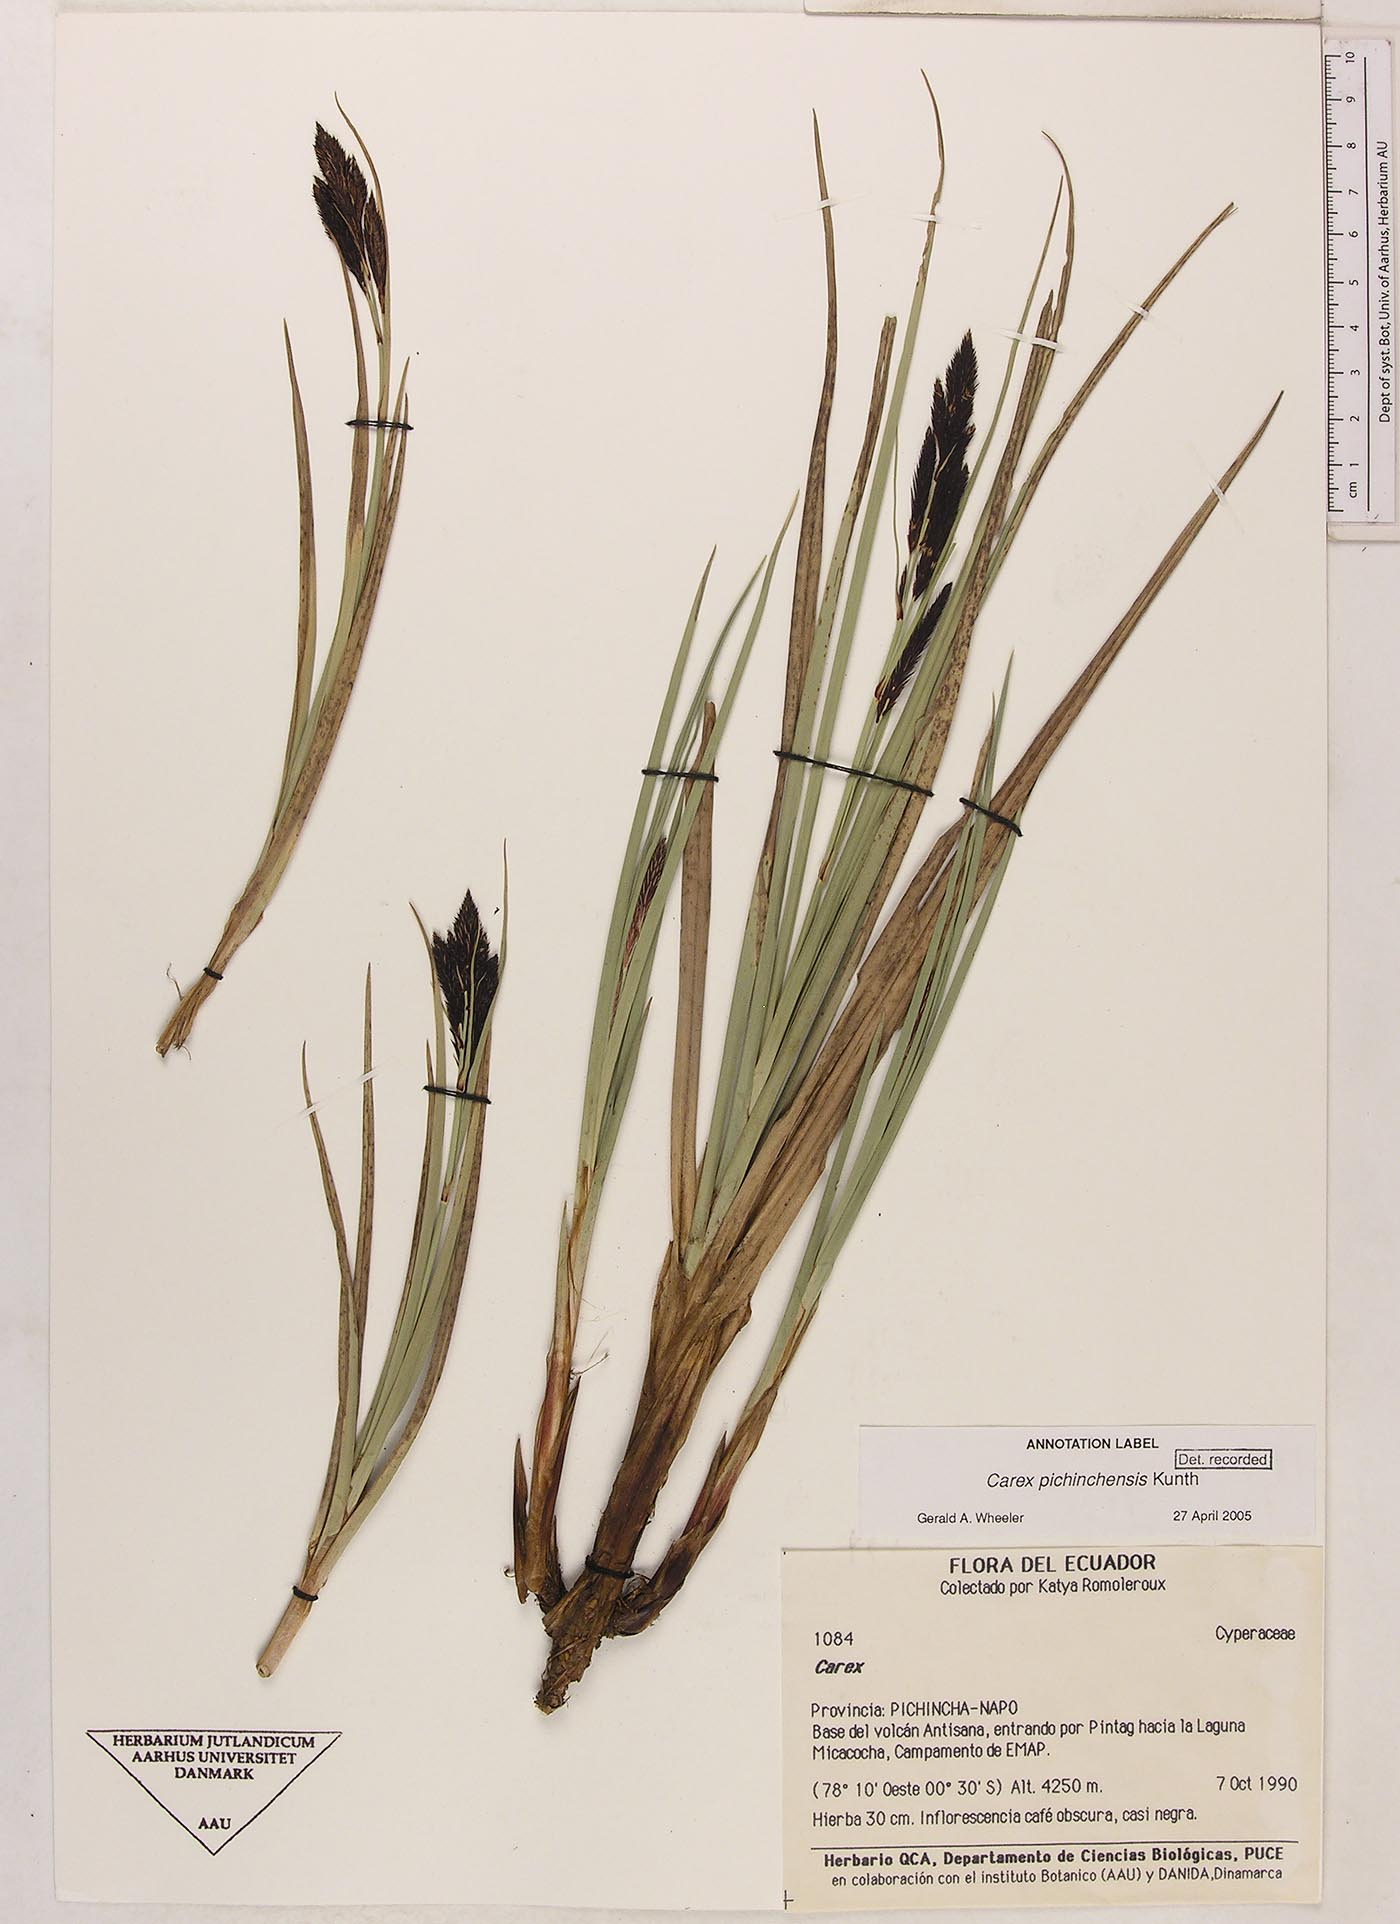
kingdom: Plantae
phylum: Tracheophyta
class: Liliopsida
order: Poales
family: Cyperaceae
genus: Carex
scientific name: Carex pichinchensis
